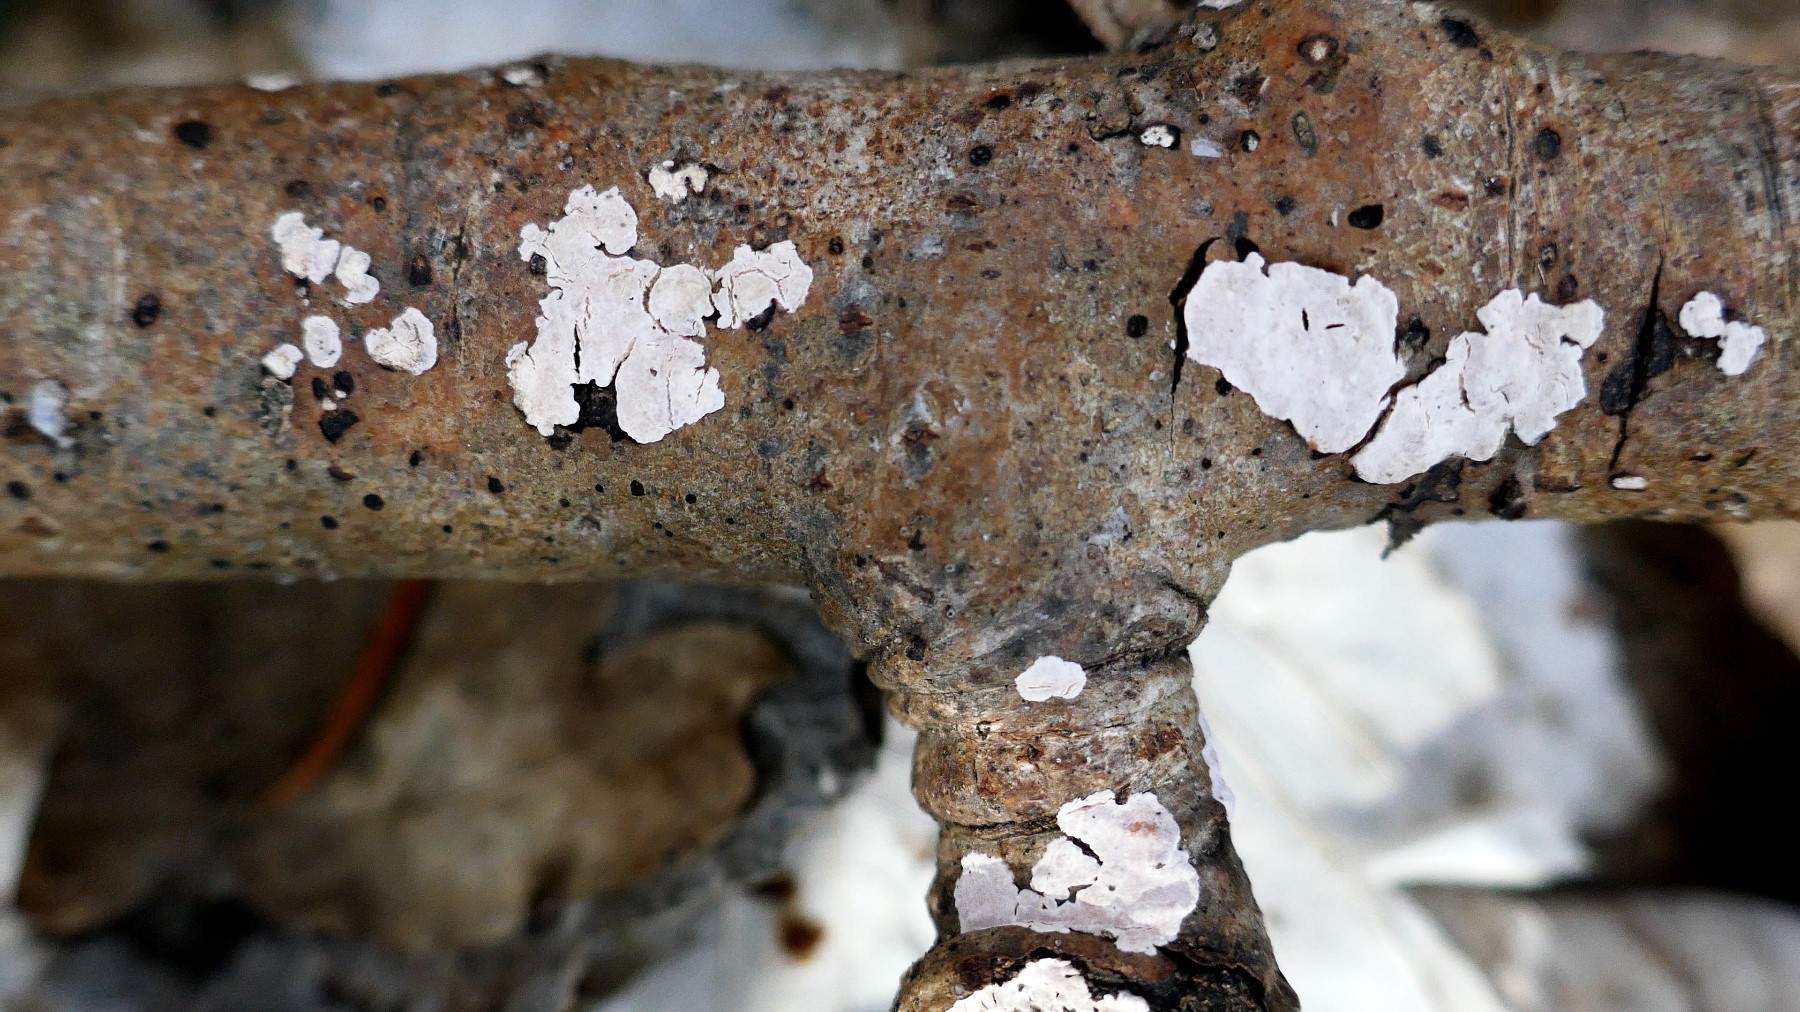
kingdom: Fungi
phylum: Basidiomycota
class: Agaricomycetes
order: Russulales
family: Peniophoraceae
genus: Peniophora
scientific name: Peniophora polygonia
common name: polygon-voksskind
